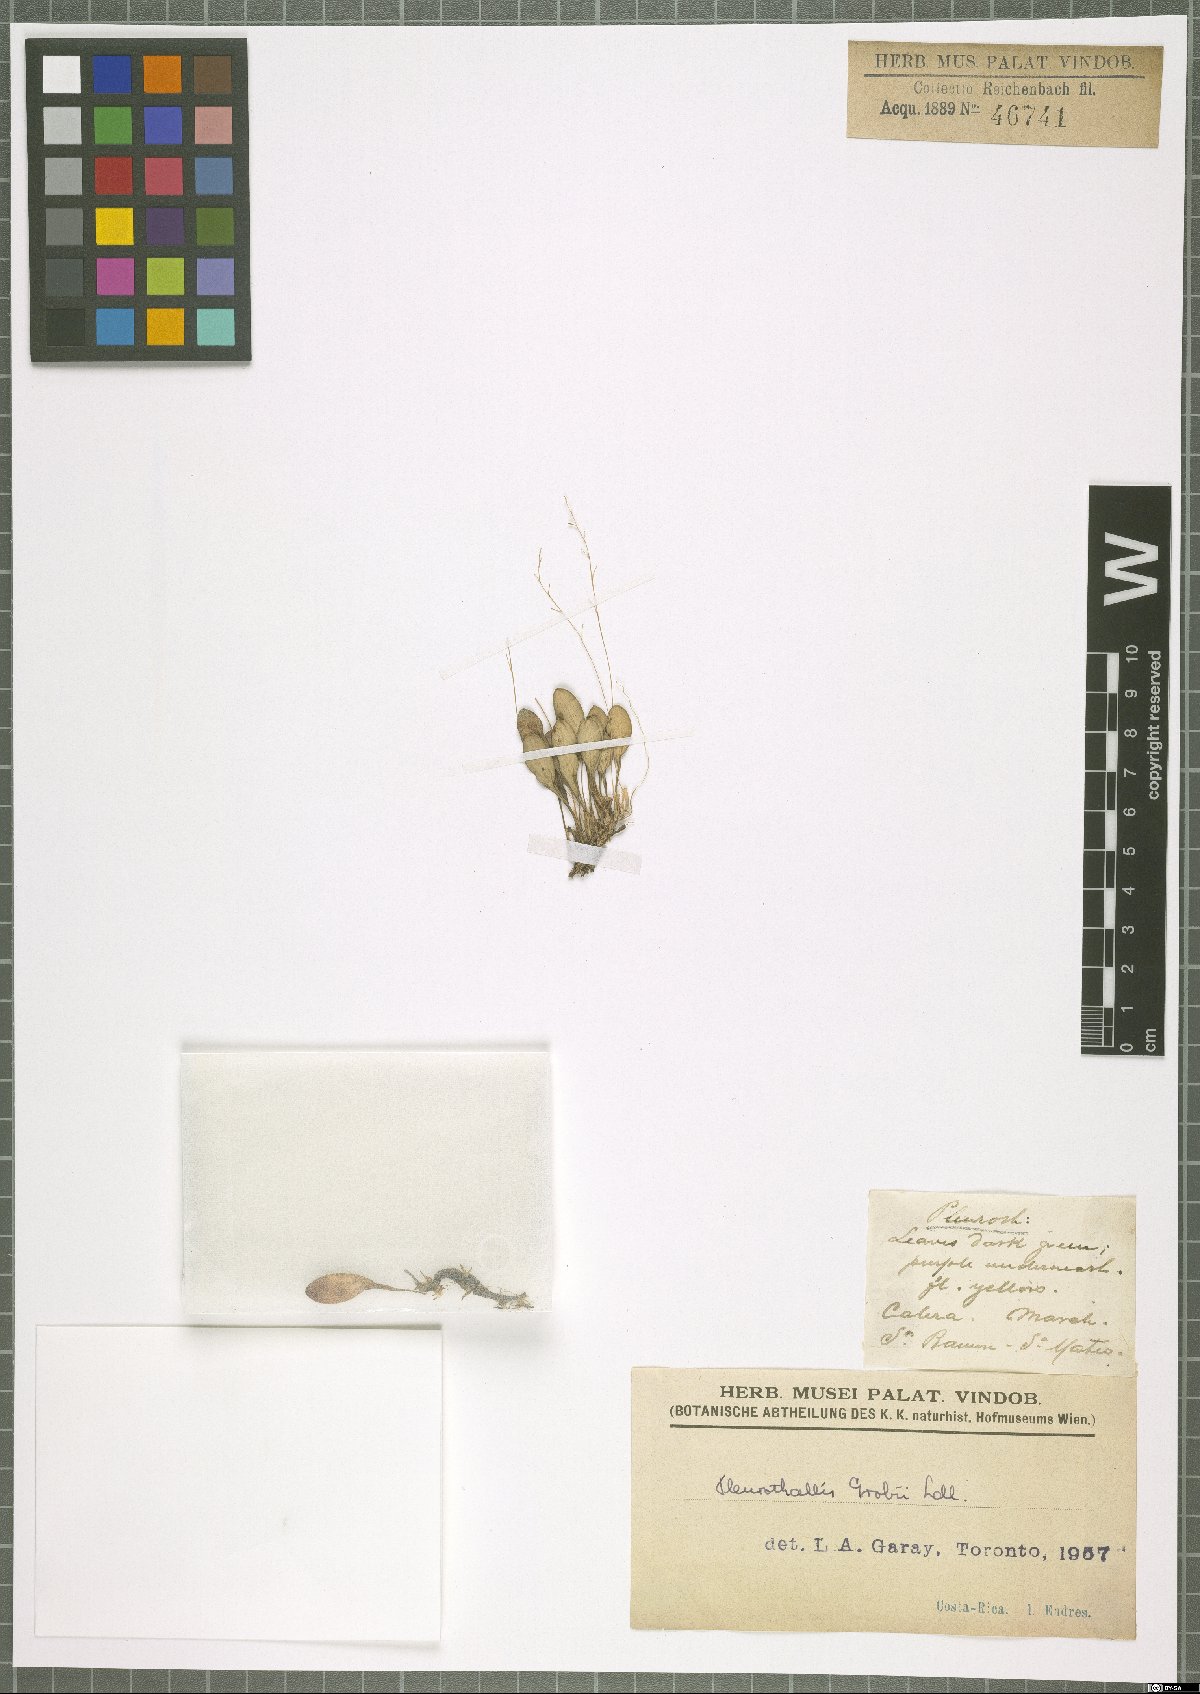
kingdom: Plantae
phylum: Tracheophyta
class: Liliopsida
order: Asparagales
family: Orchidaceae
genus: Specklinia
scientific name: Specklinia grobyi
